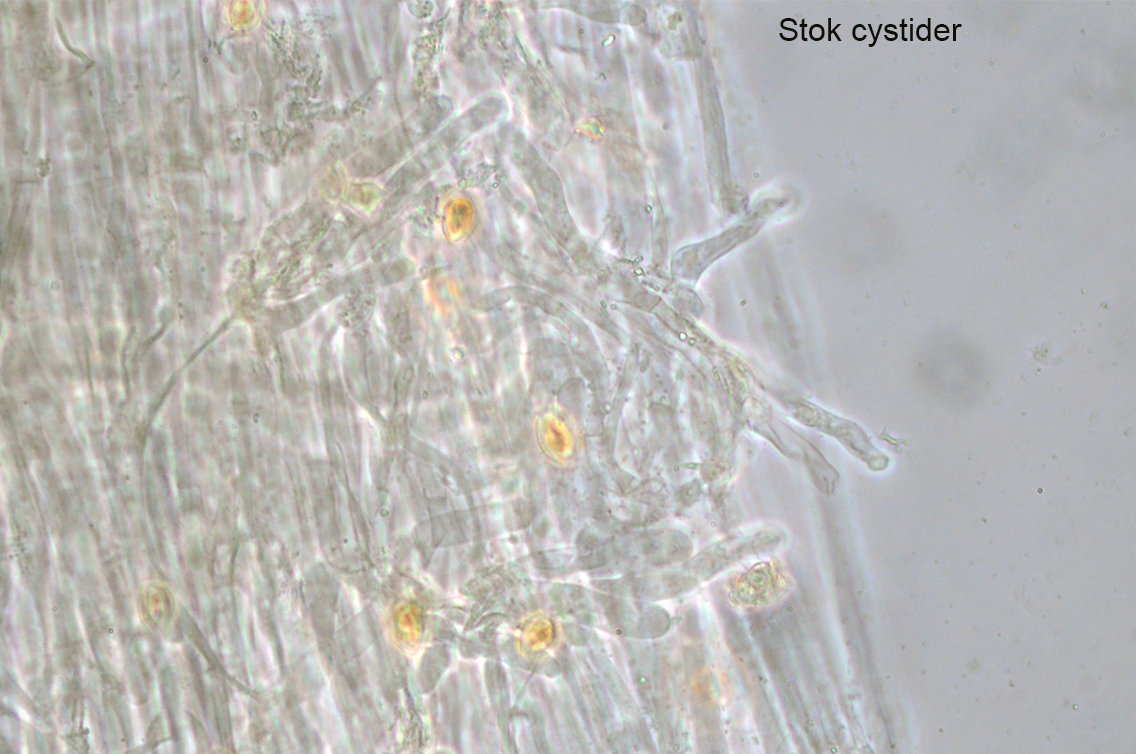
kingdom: Fungi
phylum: Basidiomycota
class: Agaricomycetes
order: Agaricales
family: Hymenogastraceae
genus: Galerina
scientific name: Galerina hypnorum
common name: mos-hjelmhat
